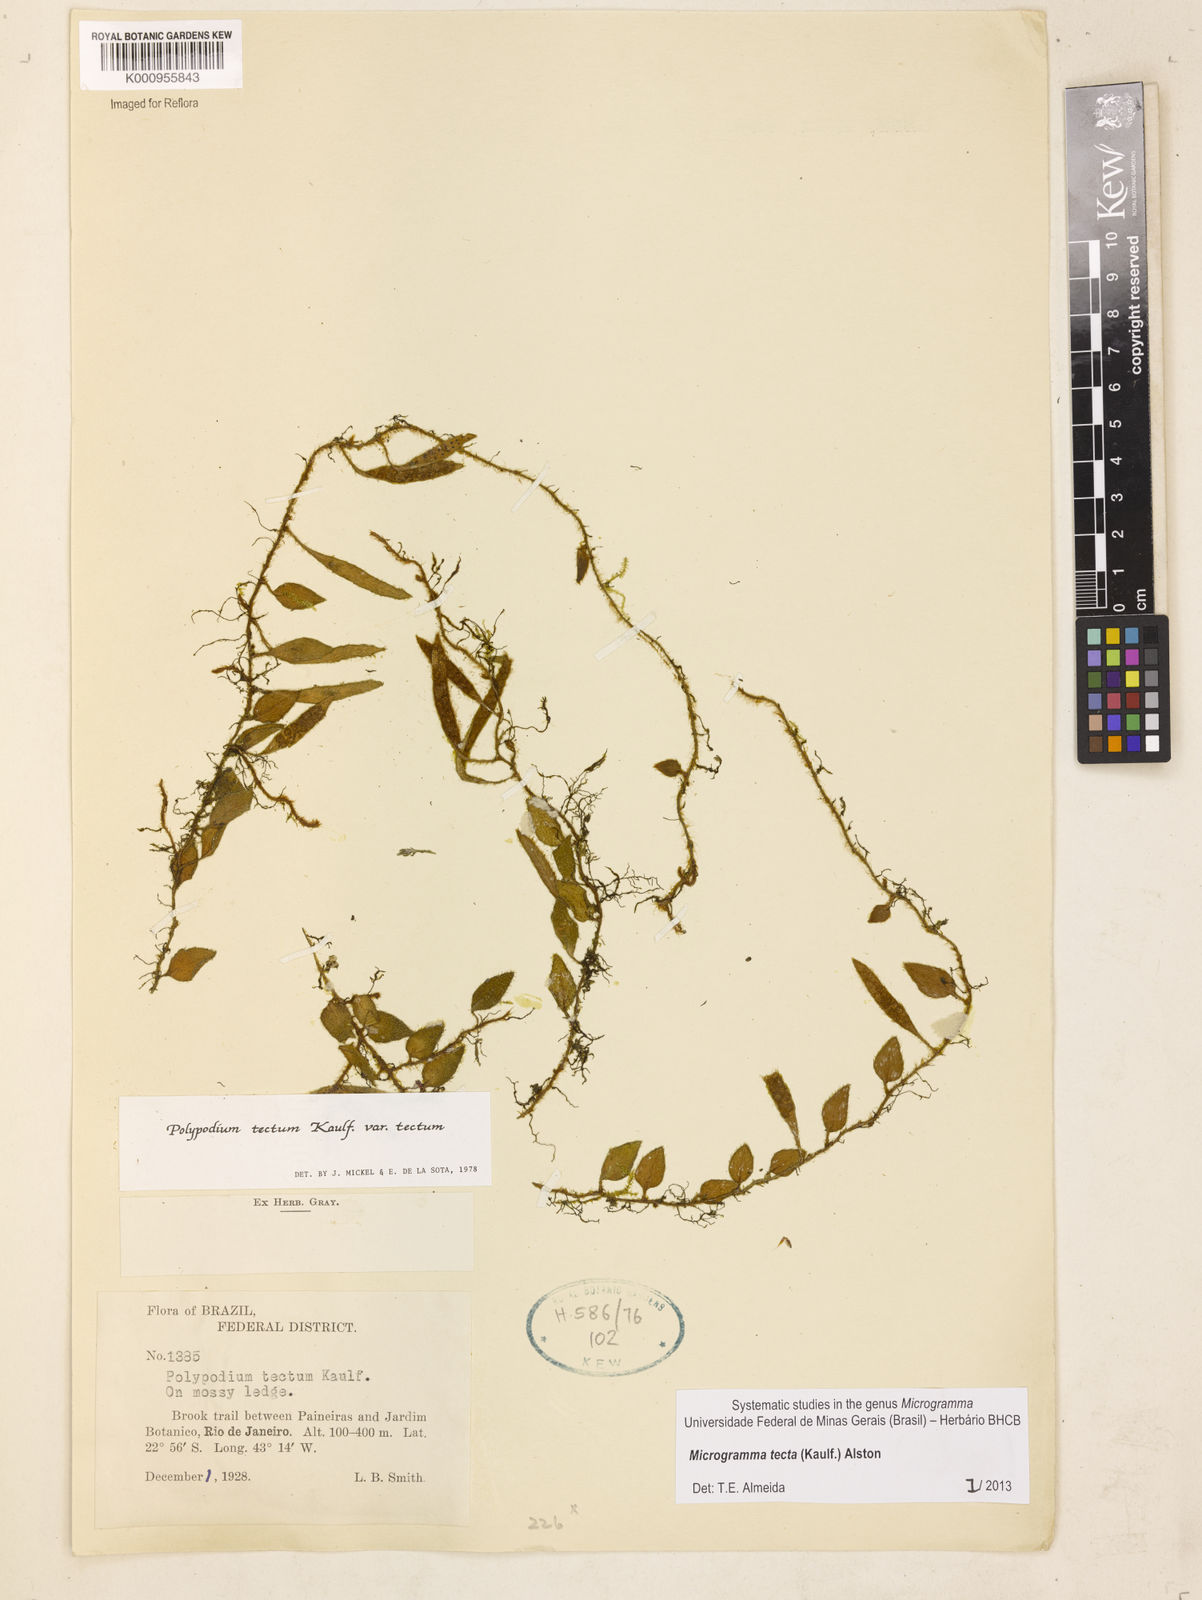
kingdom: Plantae
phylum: Tracheophyta
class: Polypodiopsida
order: Polypodiales
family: Polypodiaceae
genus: Microgramma
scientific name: Microgramma tecta
